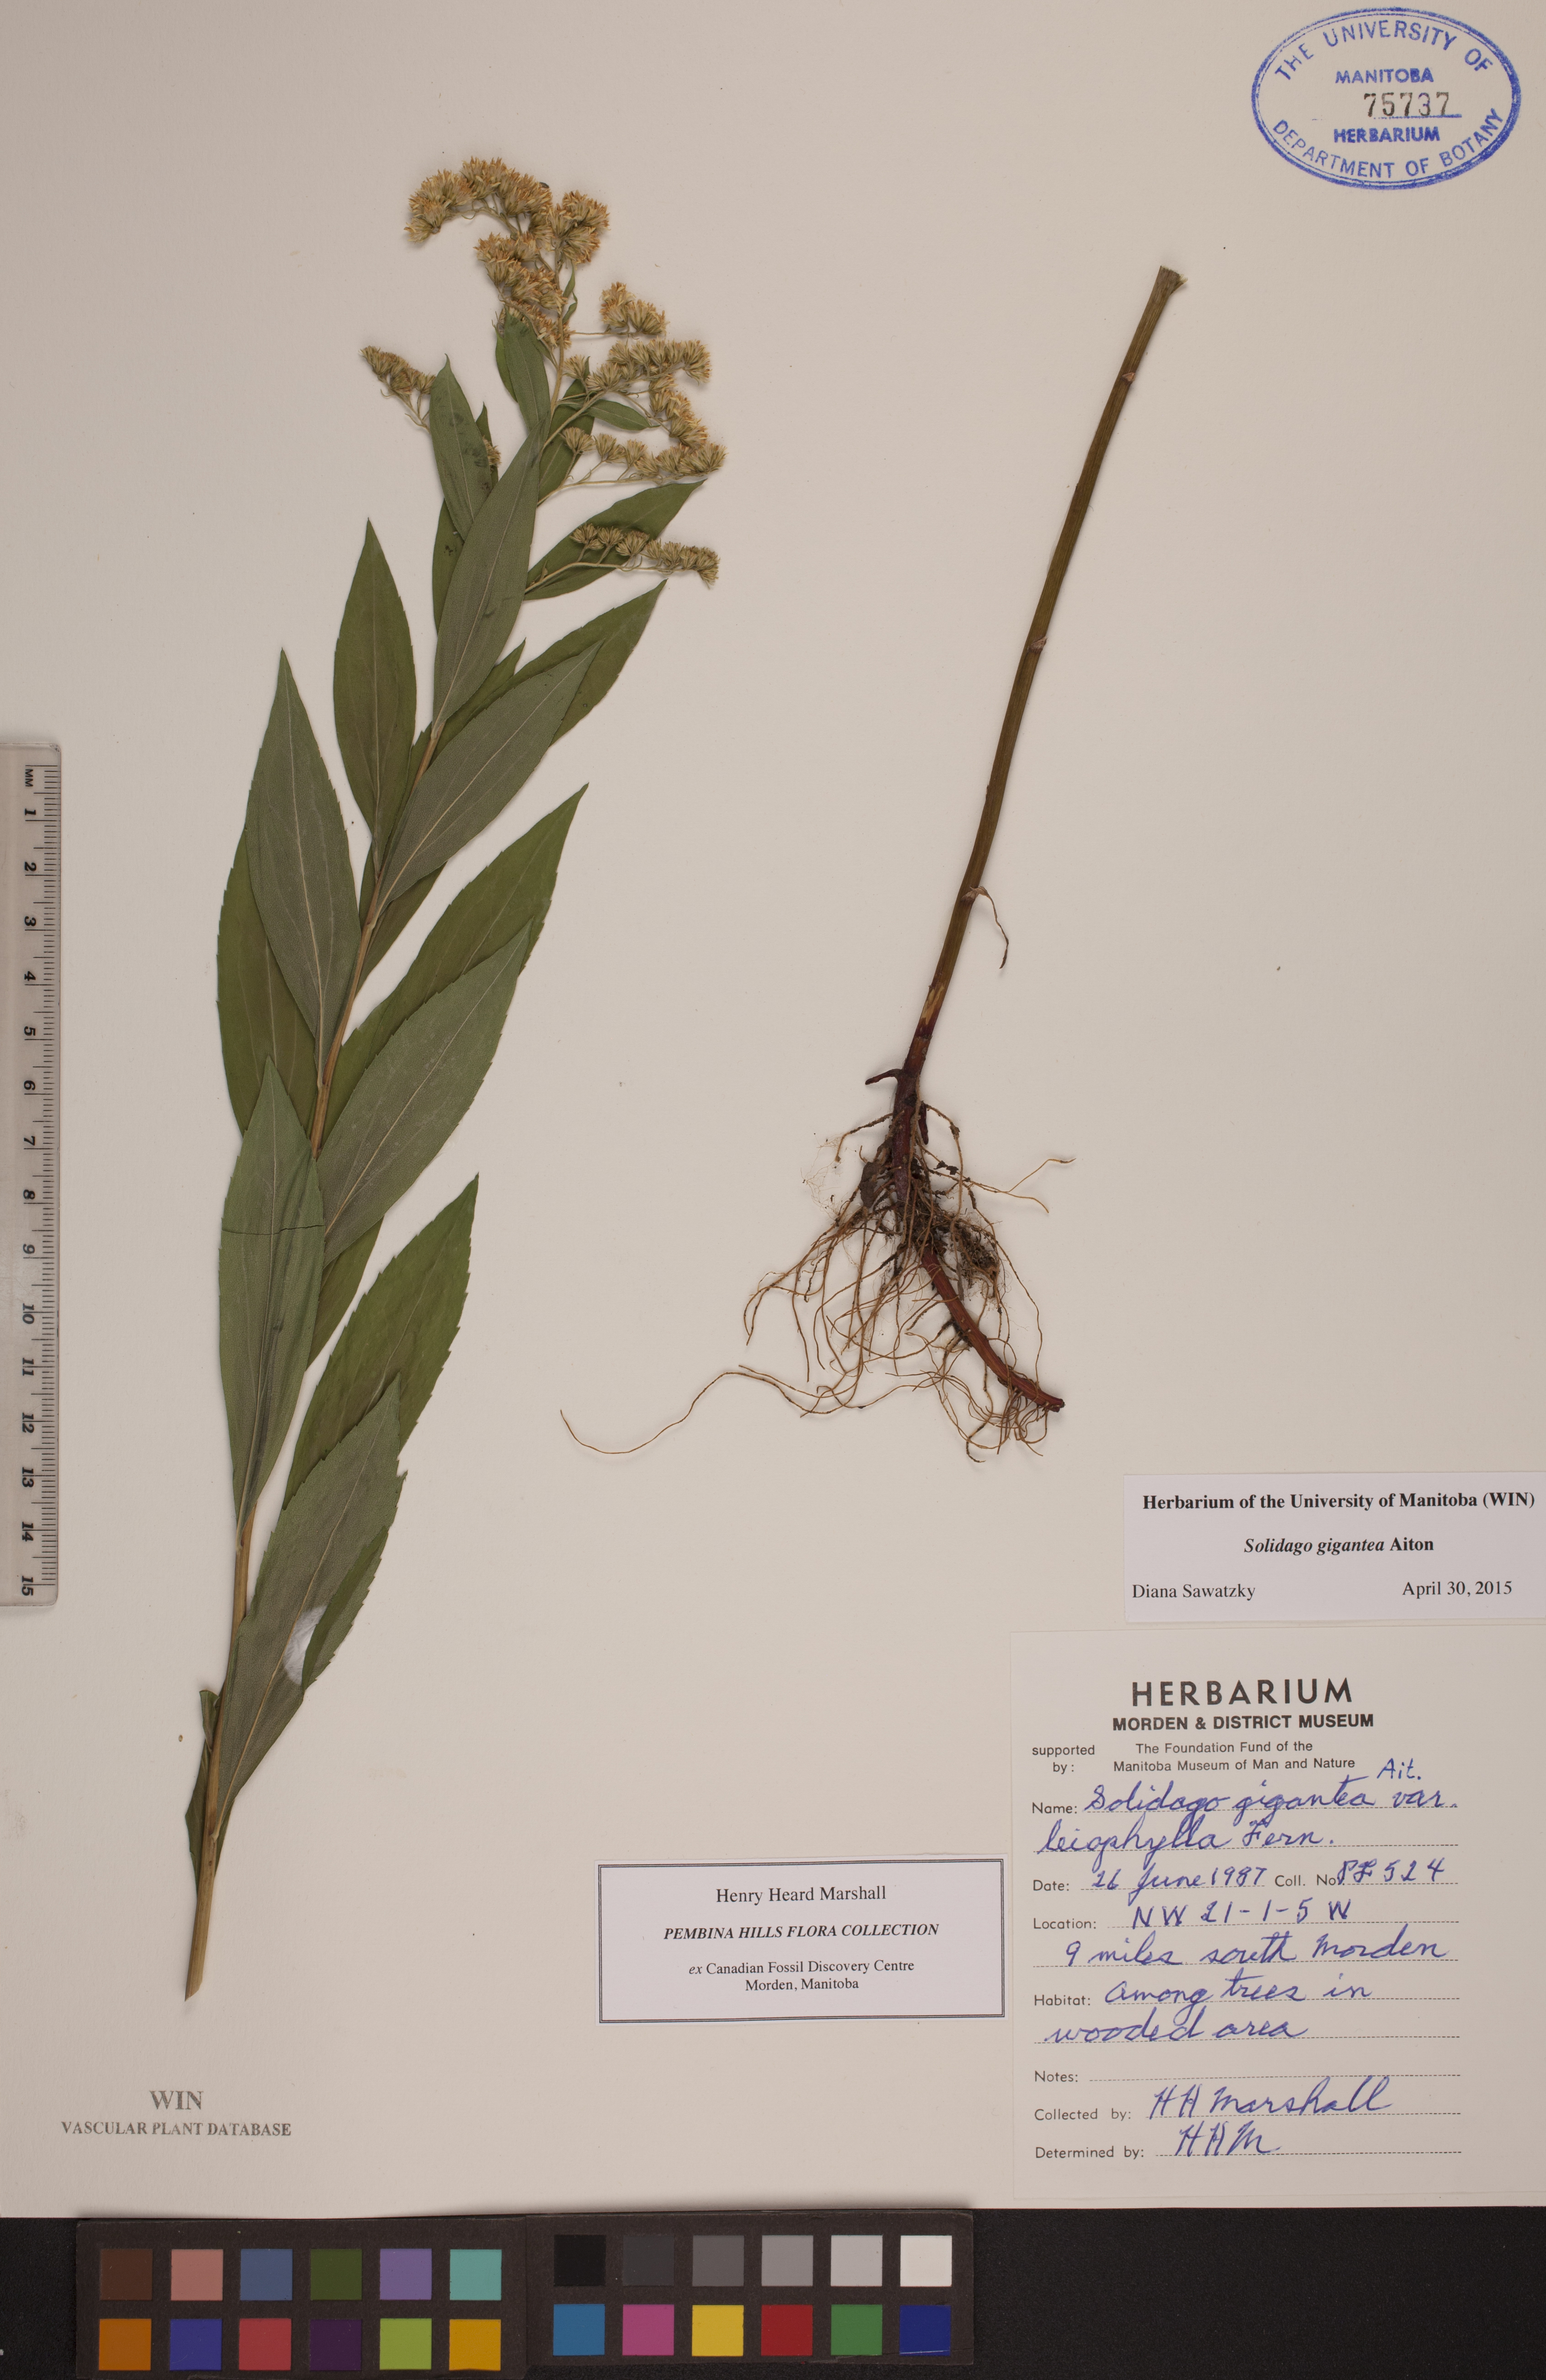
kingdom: Plantae
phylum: Tracheophyta
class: Magnoliopsida
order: Asterales
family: Asteraceae
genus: Solidago
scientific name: Solidago gigantea
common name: Giant goldenrod
